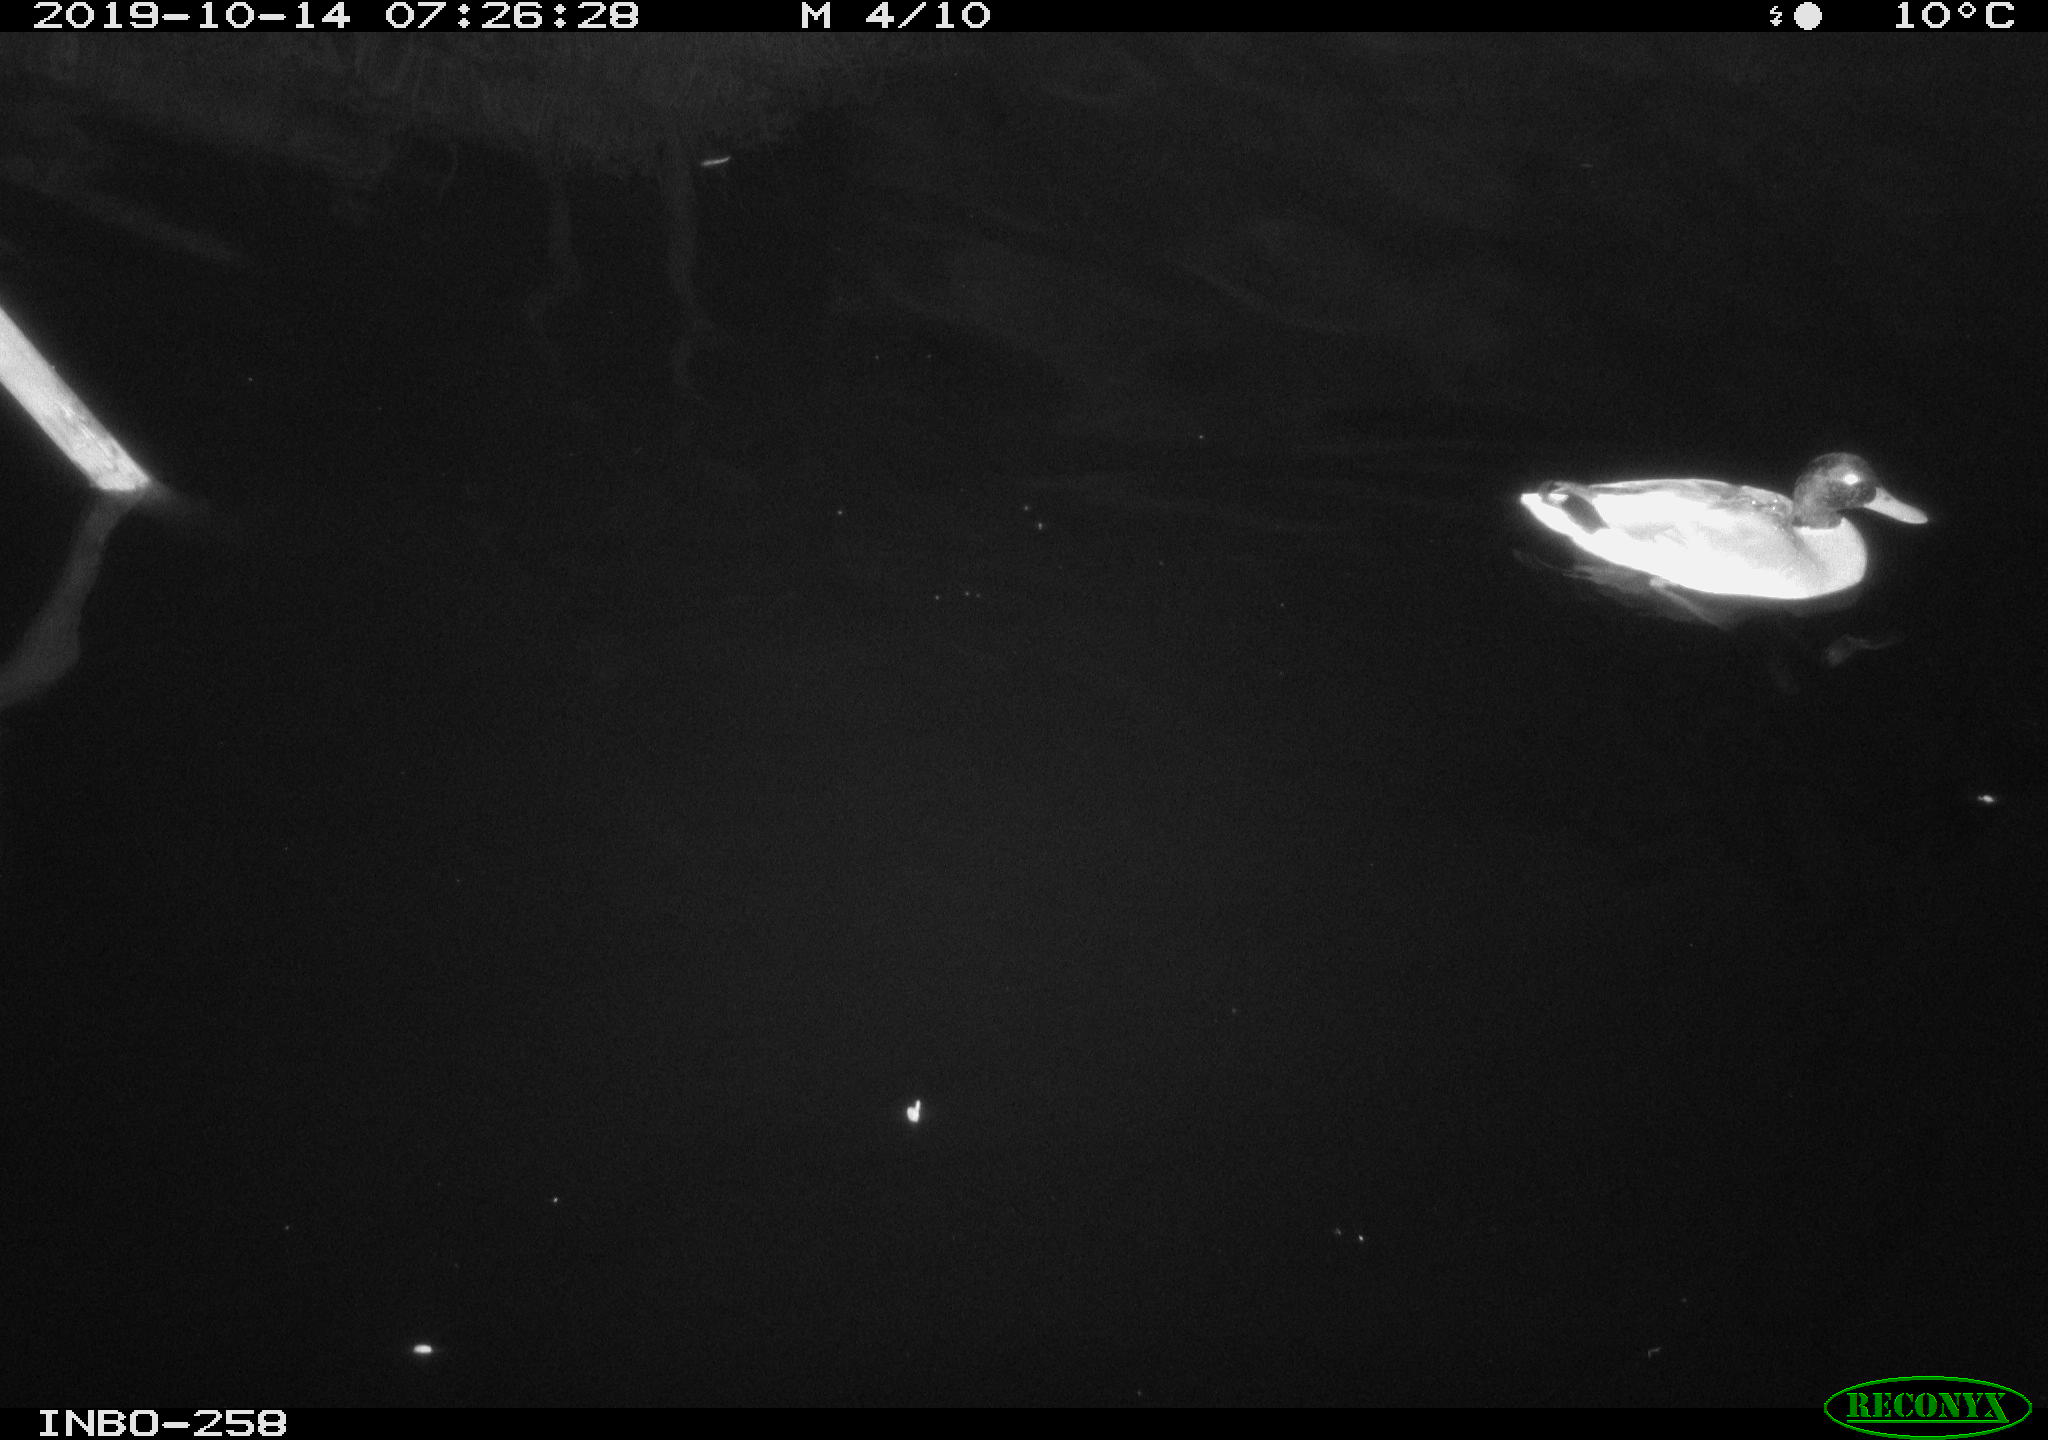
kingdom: Animalia
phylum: Chordata
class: Aves
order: Anseriformes
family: Anatidae
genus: Anas
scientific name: Anas platyrhynchos
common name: Mallard
